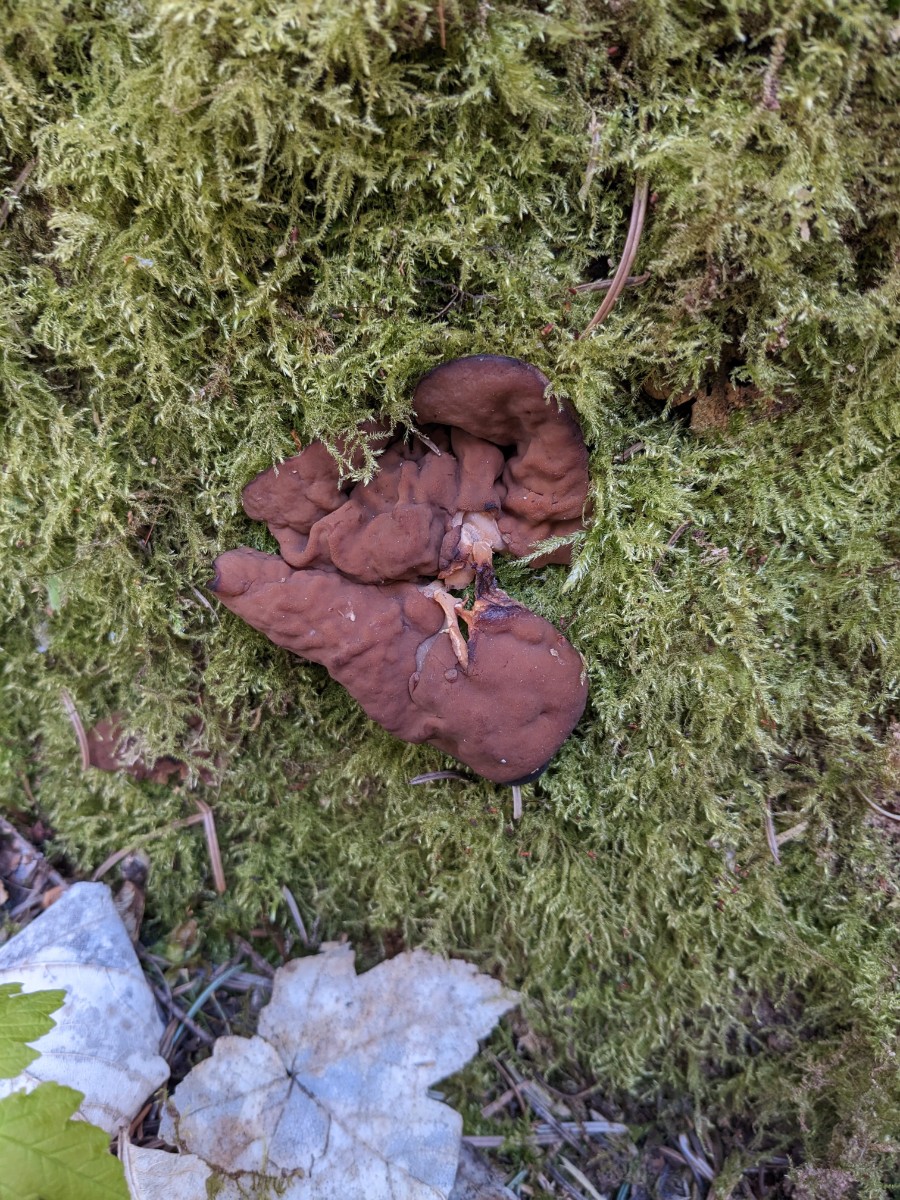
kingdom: Fungi
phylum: Ascomycota
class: Pezizomycetes
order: Pezizales
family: Discinaceae
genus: Discina
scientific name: Discina ancilis
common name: udbredt stenmorkel
